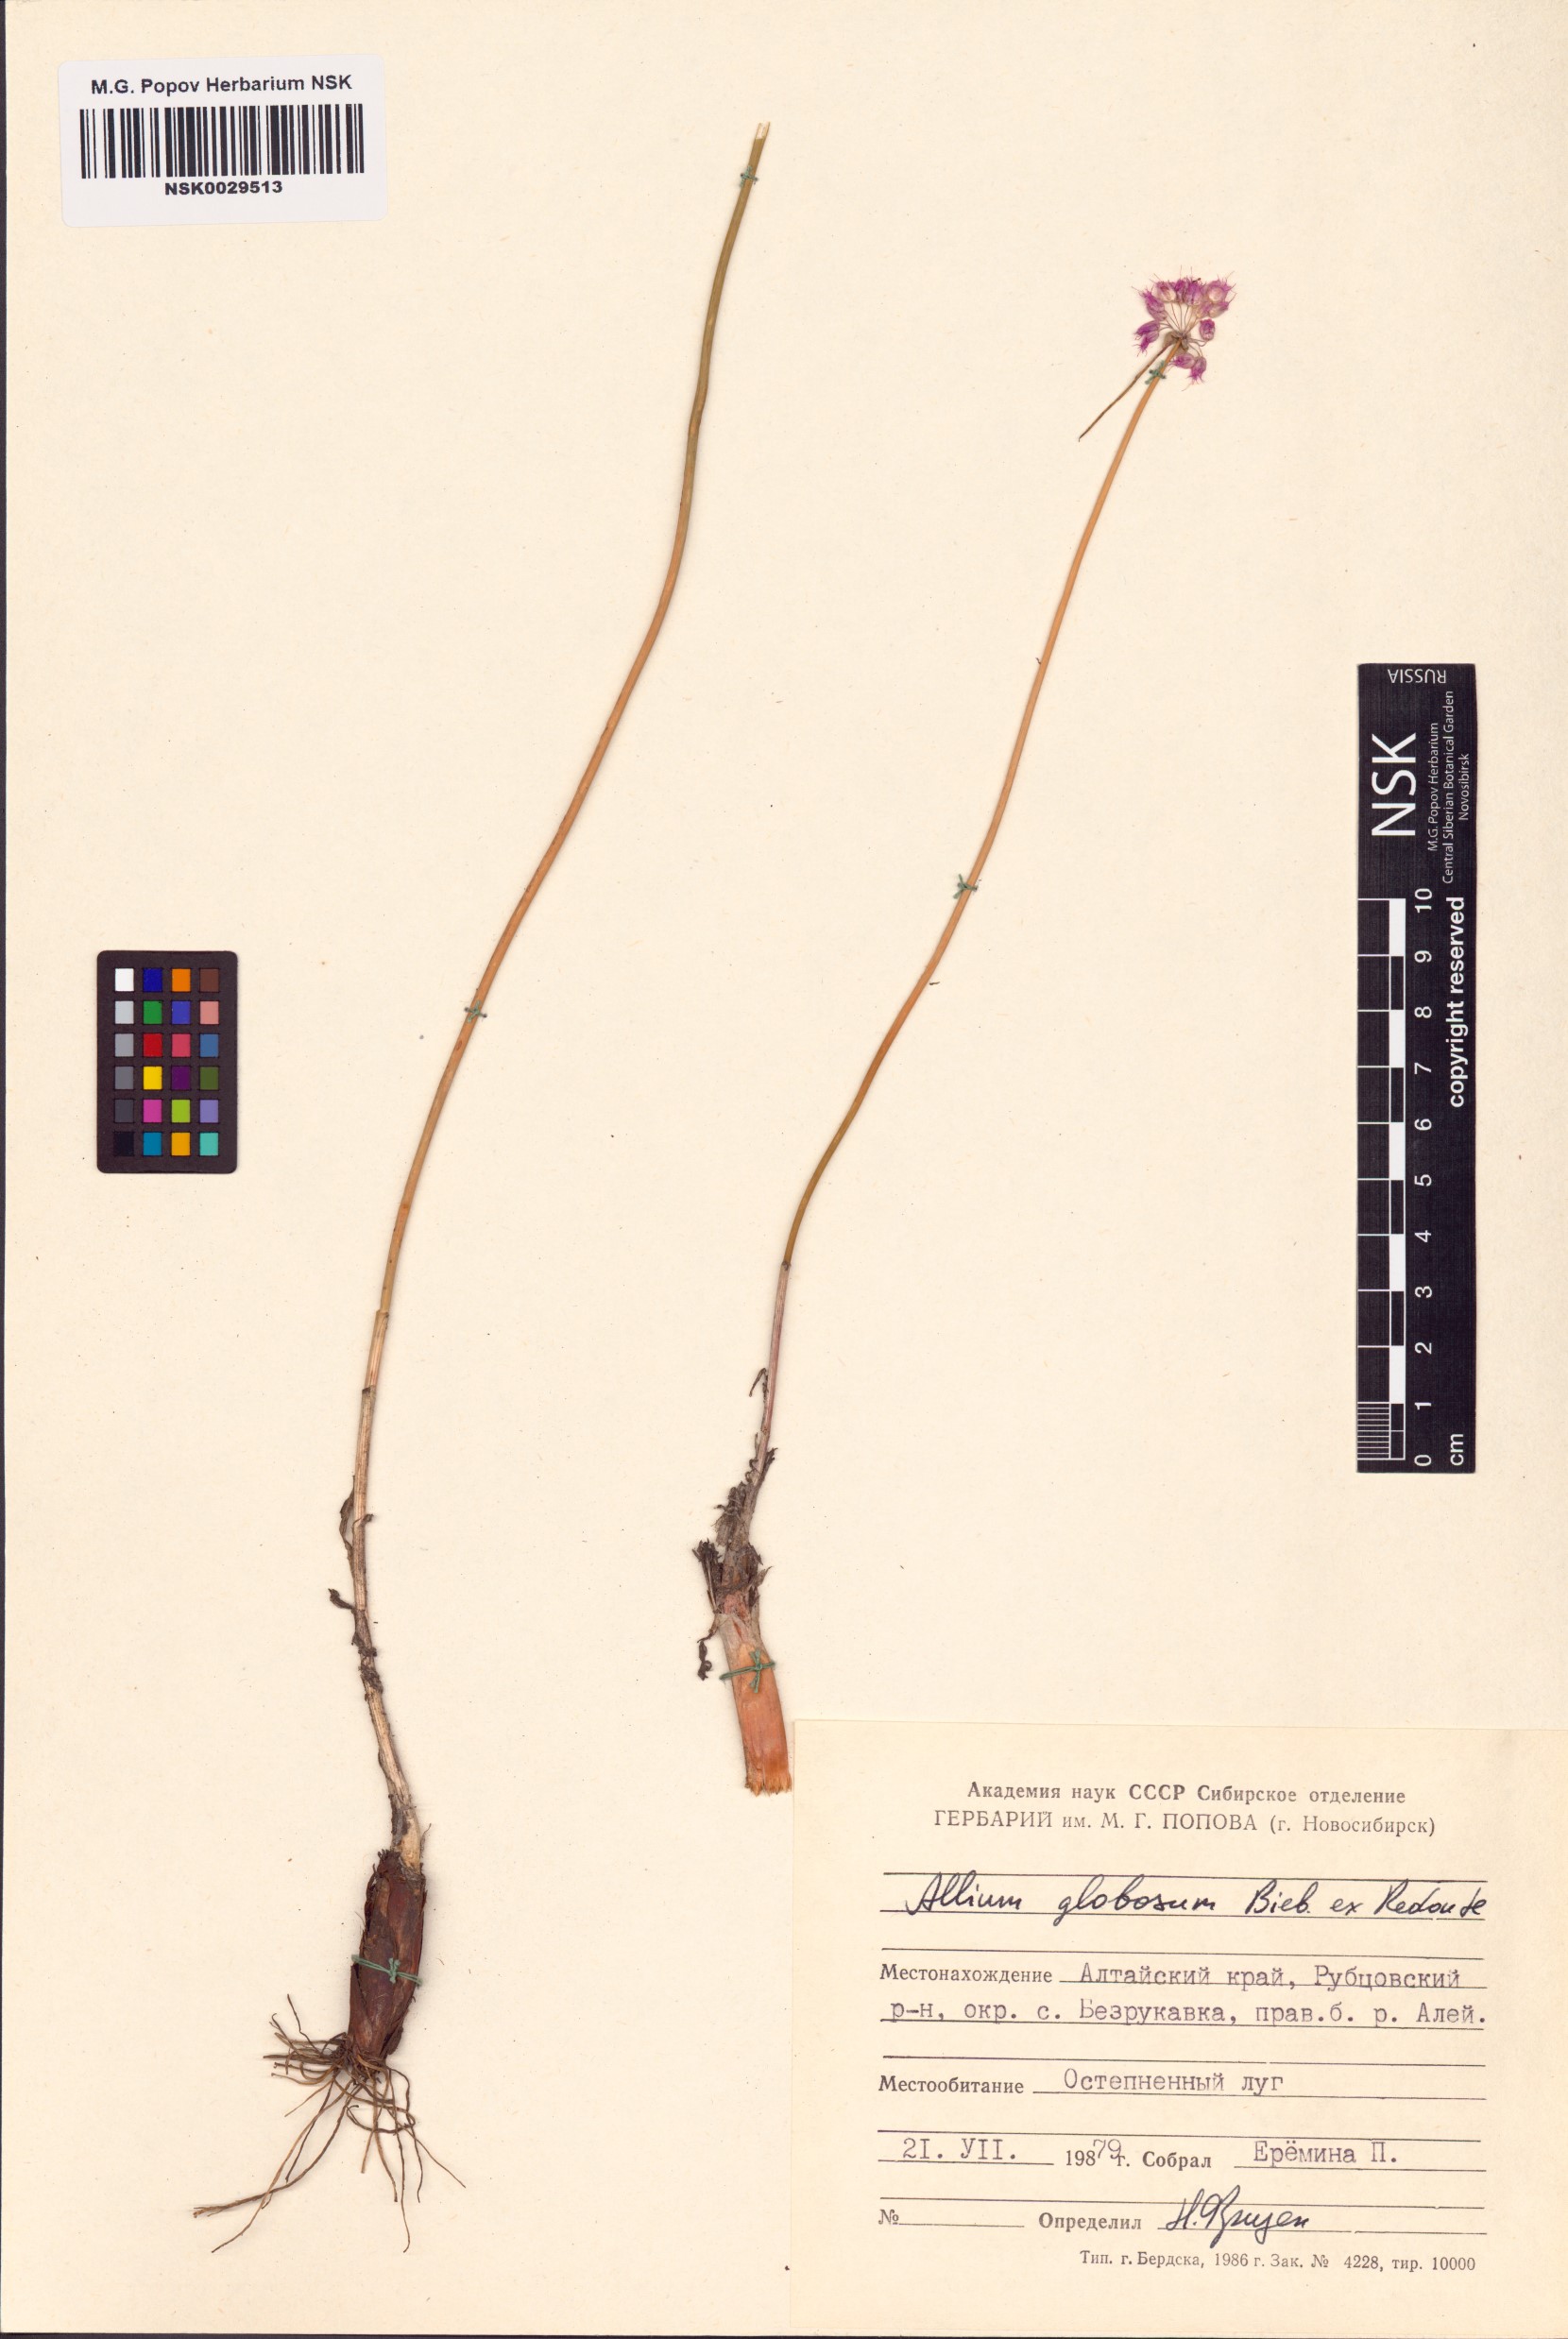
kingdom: Plantae
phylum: Tracheophyta
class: Liliopsida
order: Asparagales
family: Amaryllidaceae
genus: Allium
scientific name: Allium saxatile
